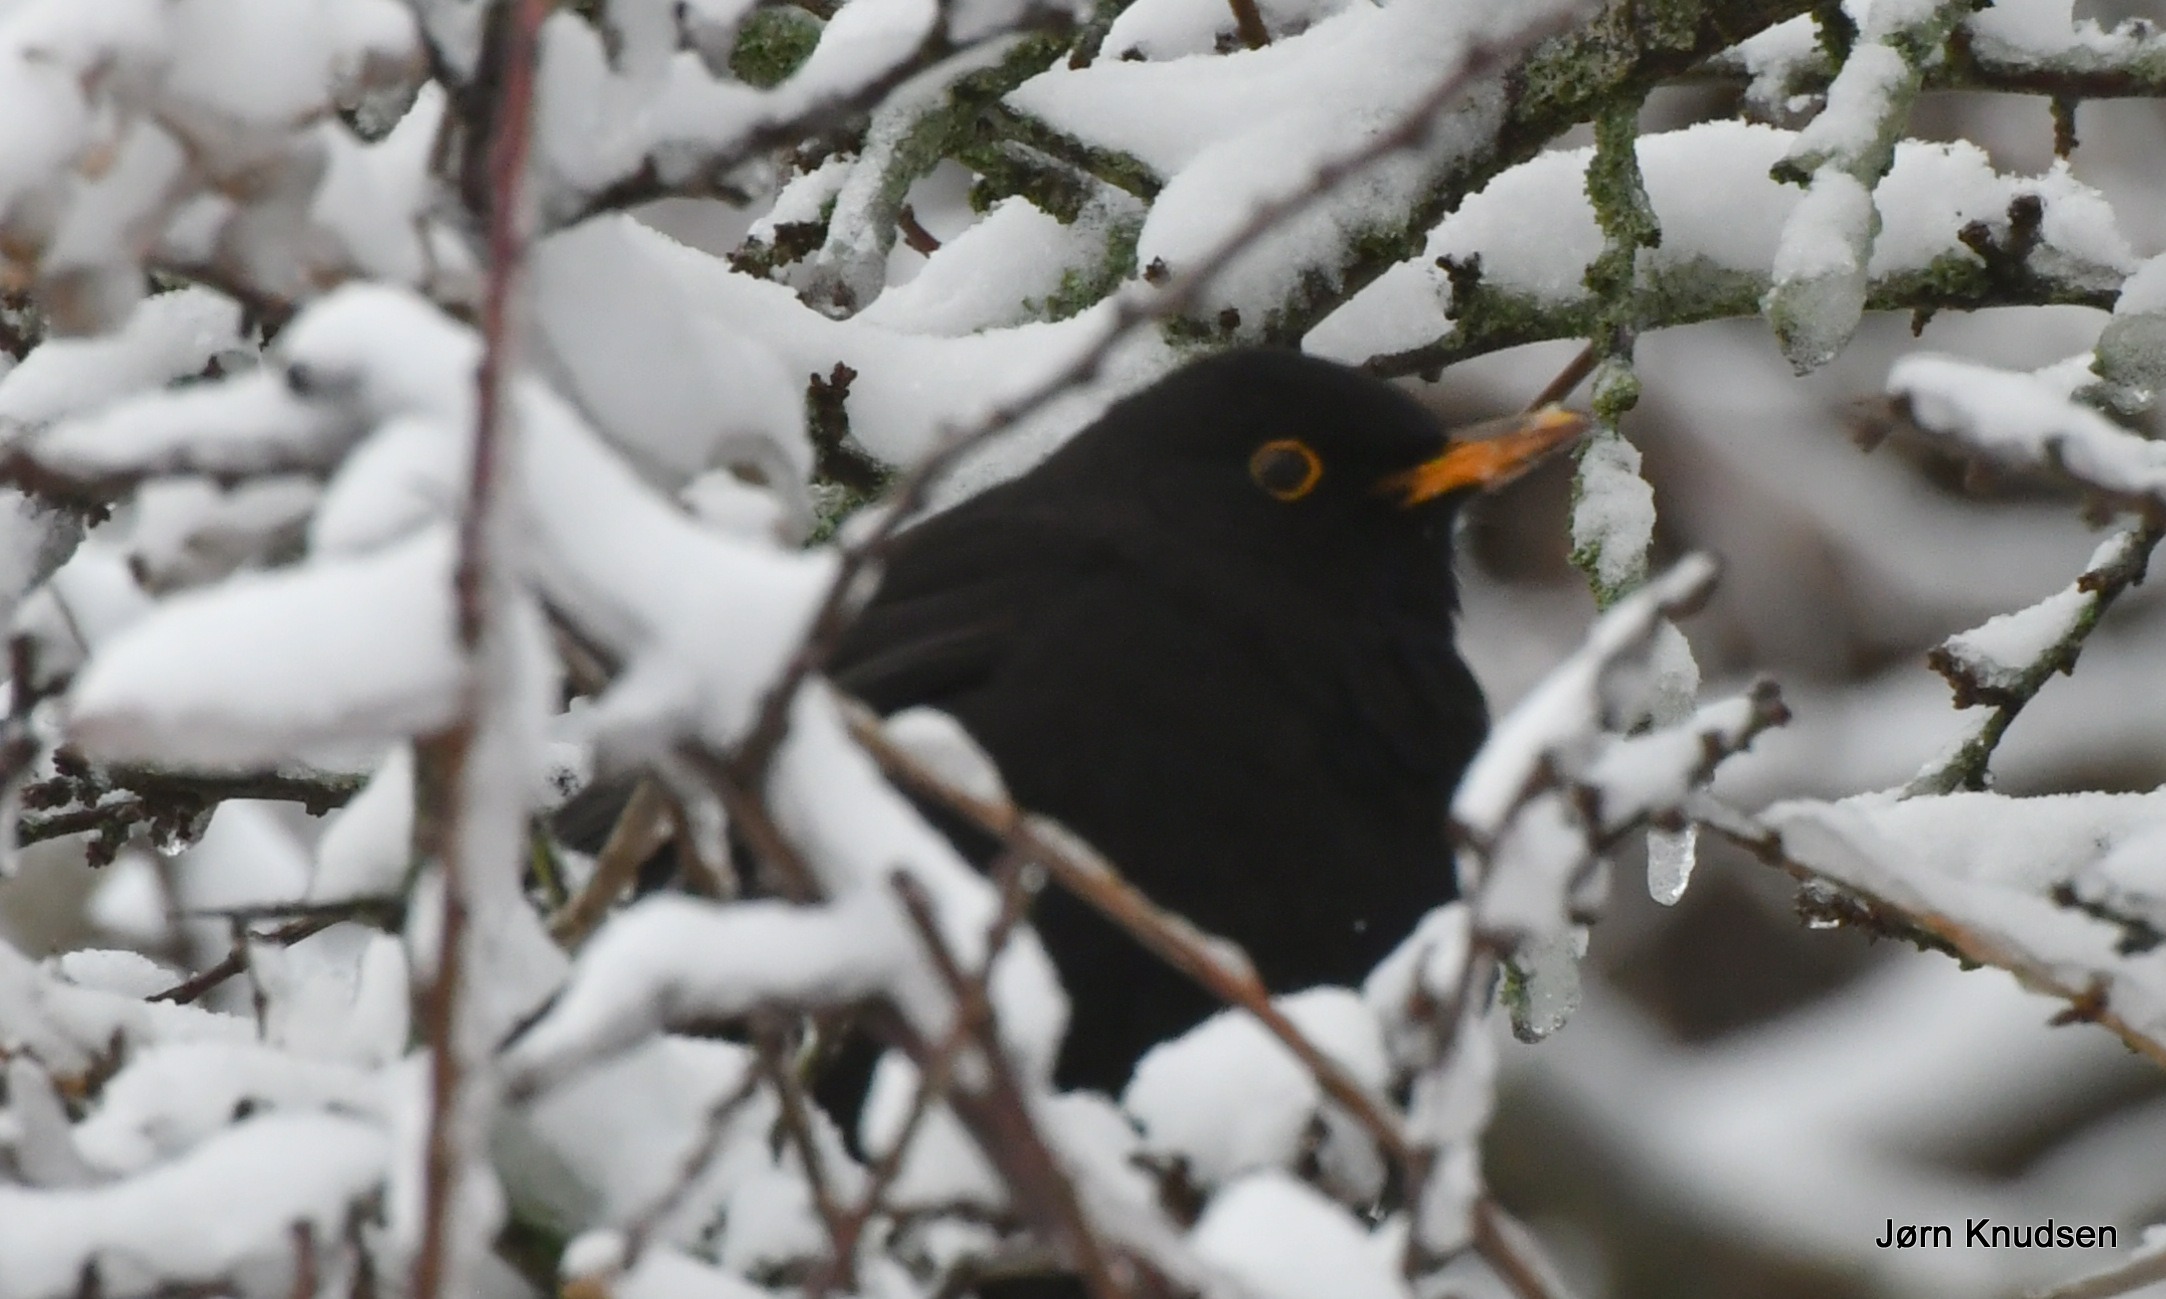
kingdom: Animalia
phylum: Chordata
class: Aves
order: Passeriformes
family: Turdidae
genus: Turdus
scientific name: Turdus merula
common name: Solsort
